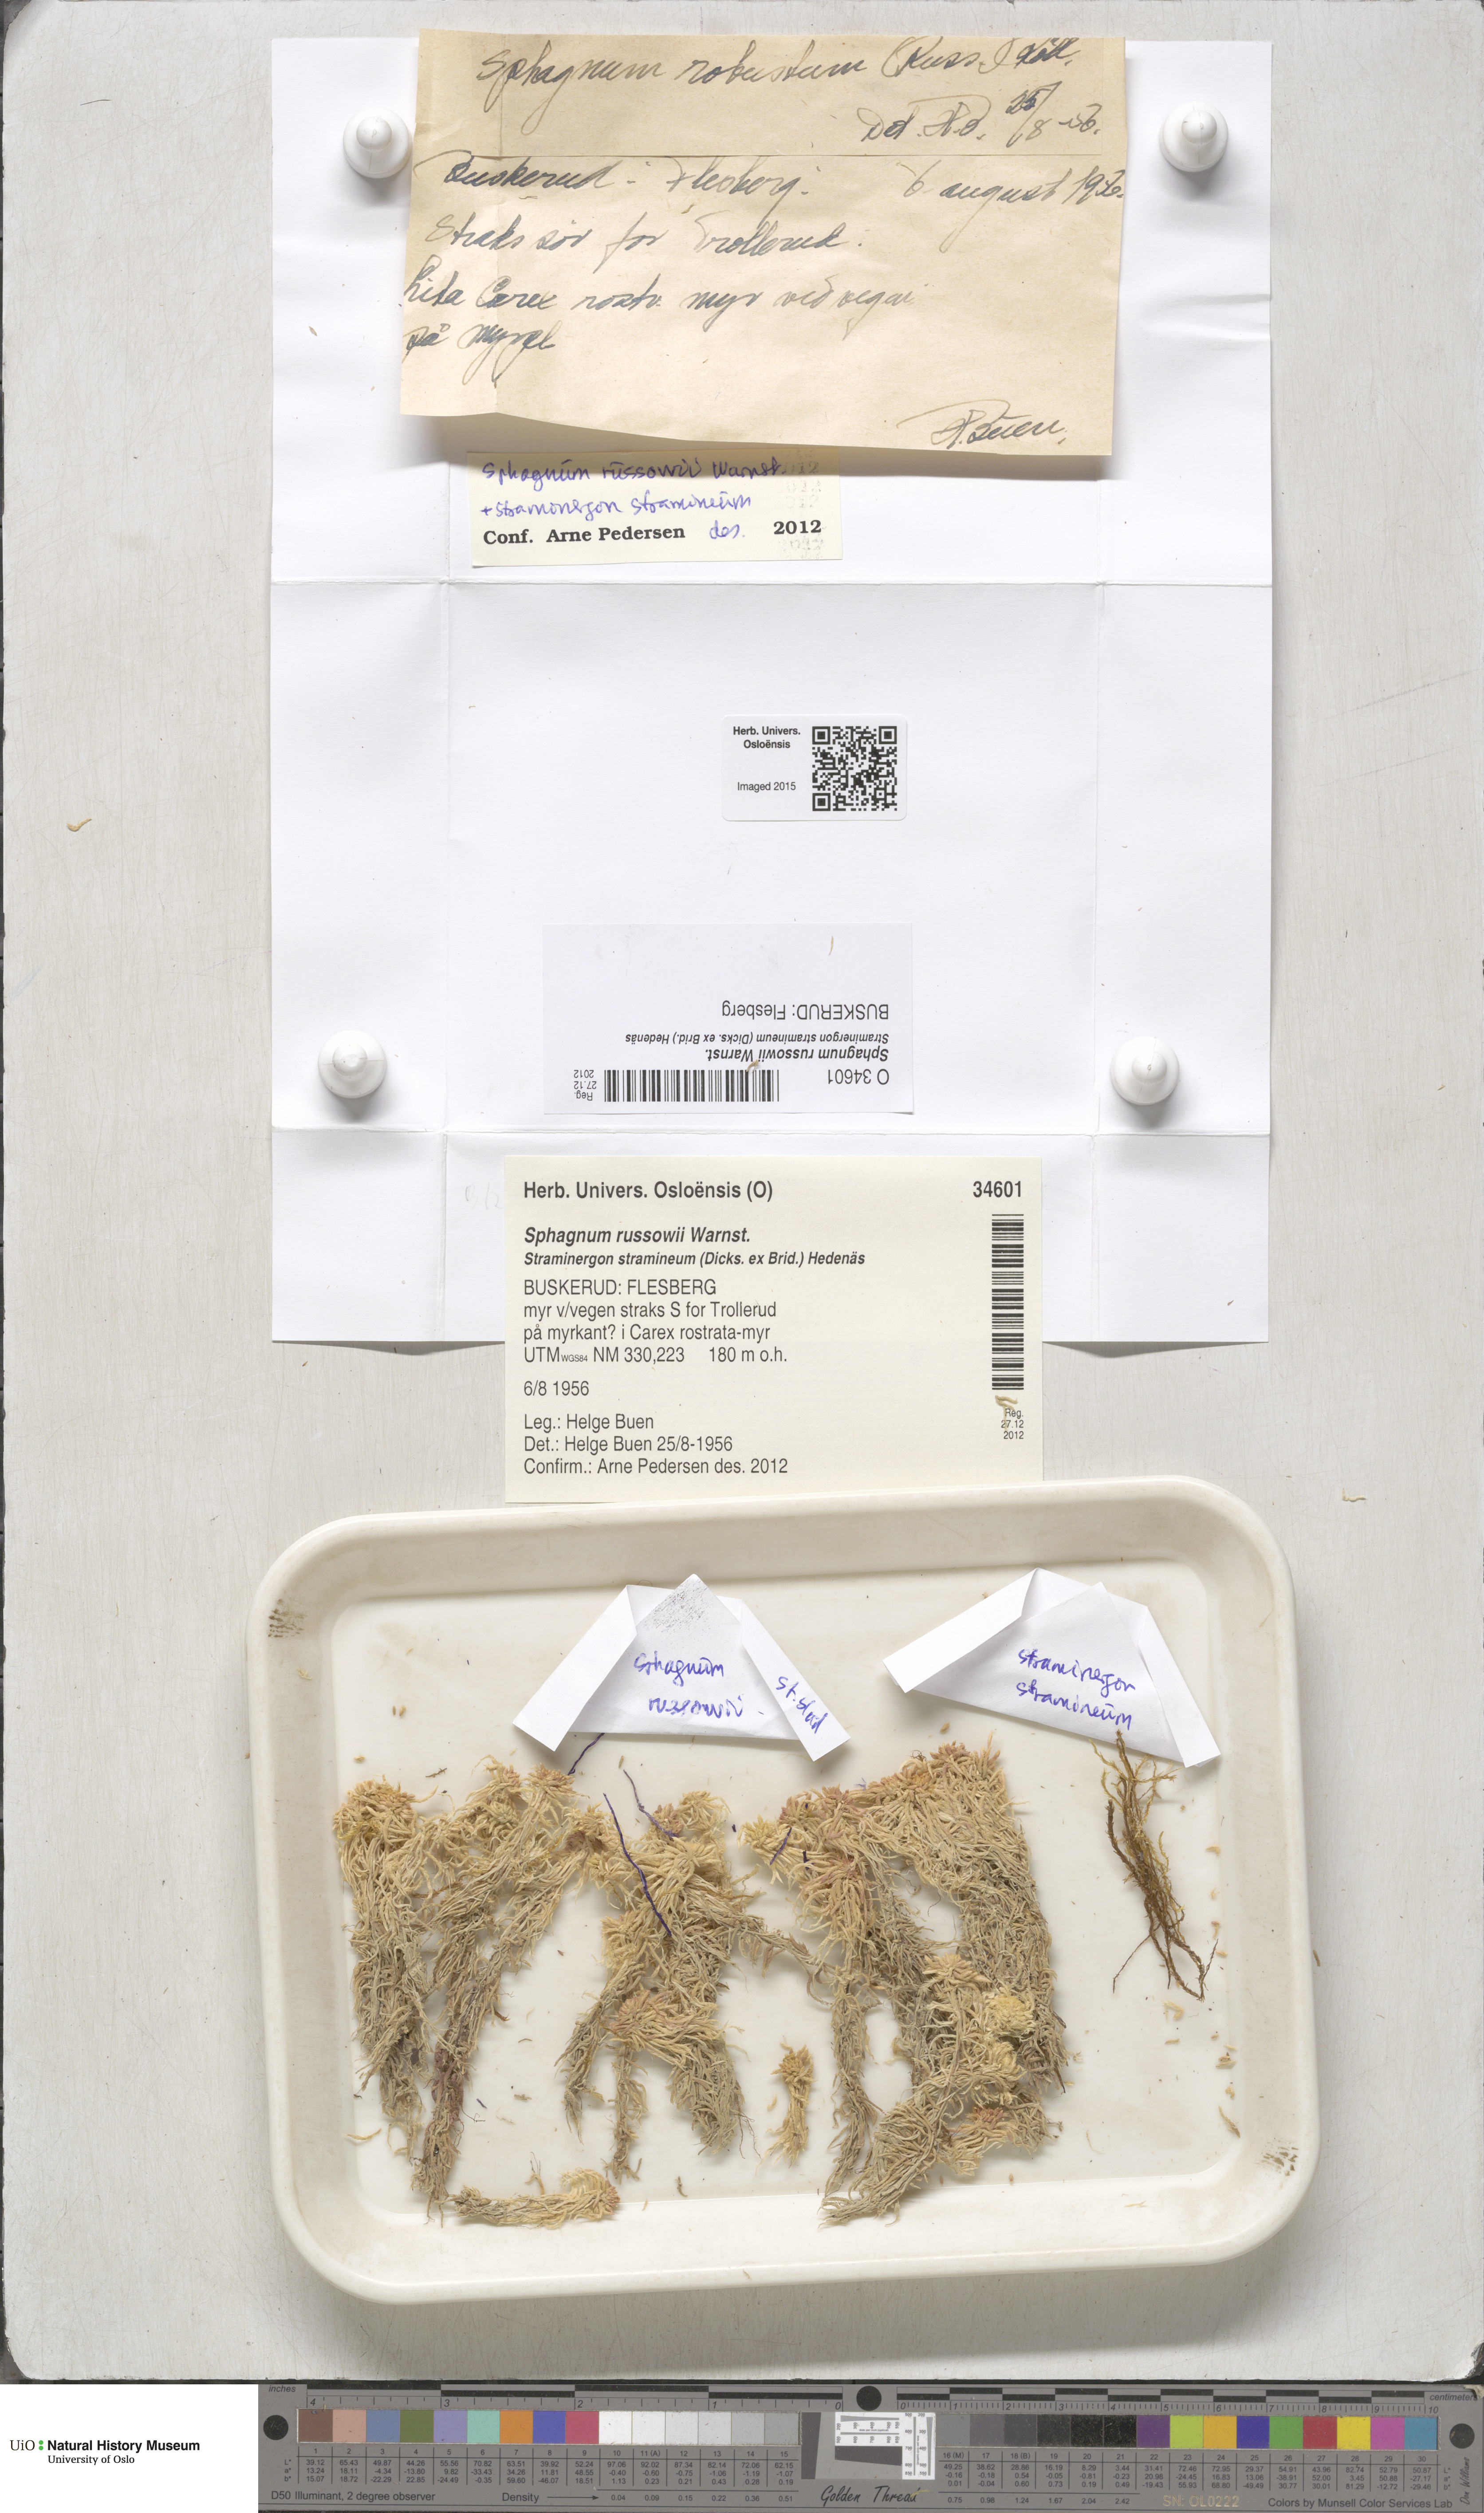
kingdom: Plantae
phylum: Bryophyta
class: Sphagnopsida
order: Sphagnales
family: Sphagnaceae
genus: Sphagnum
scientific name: Sphagnum russowii
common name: Russow's peat moss
